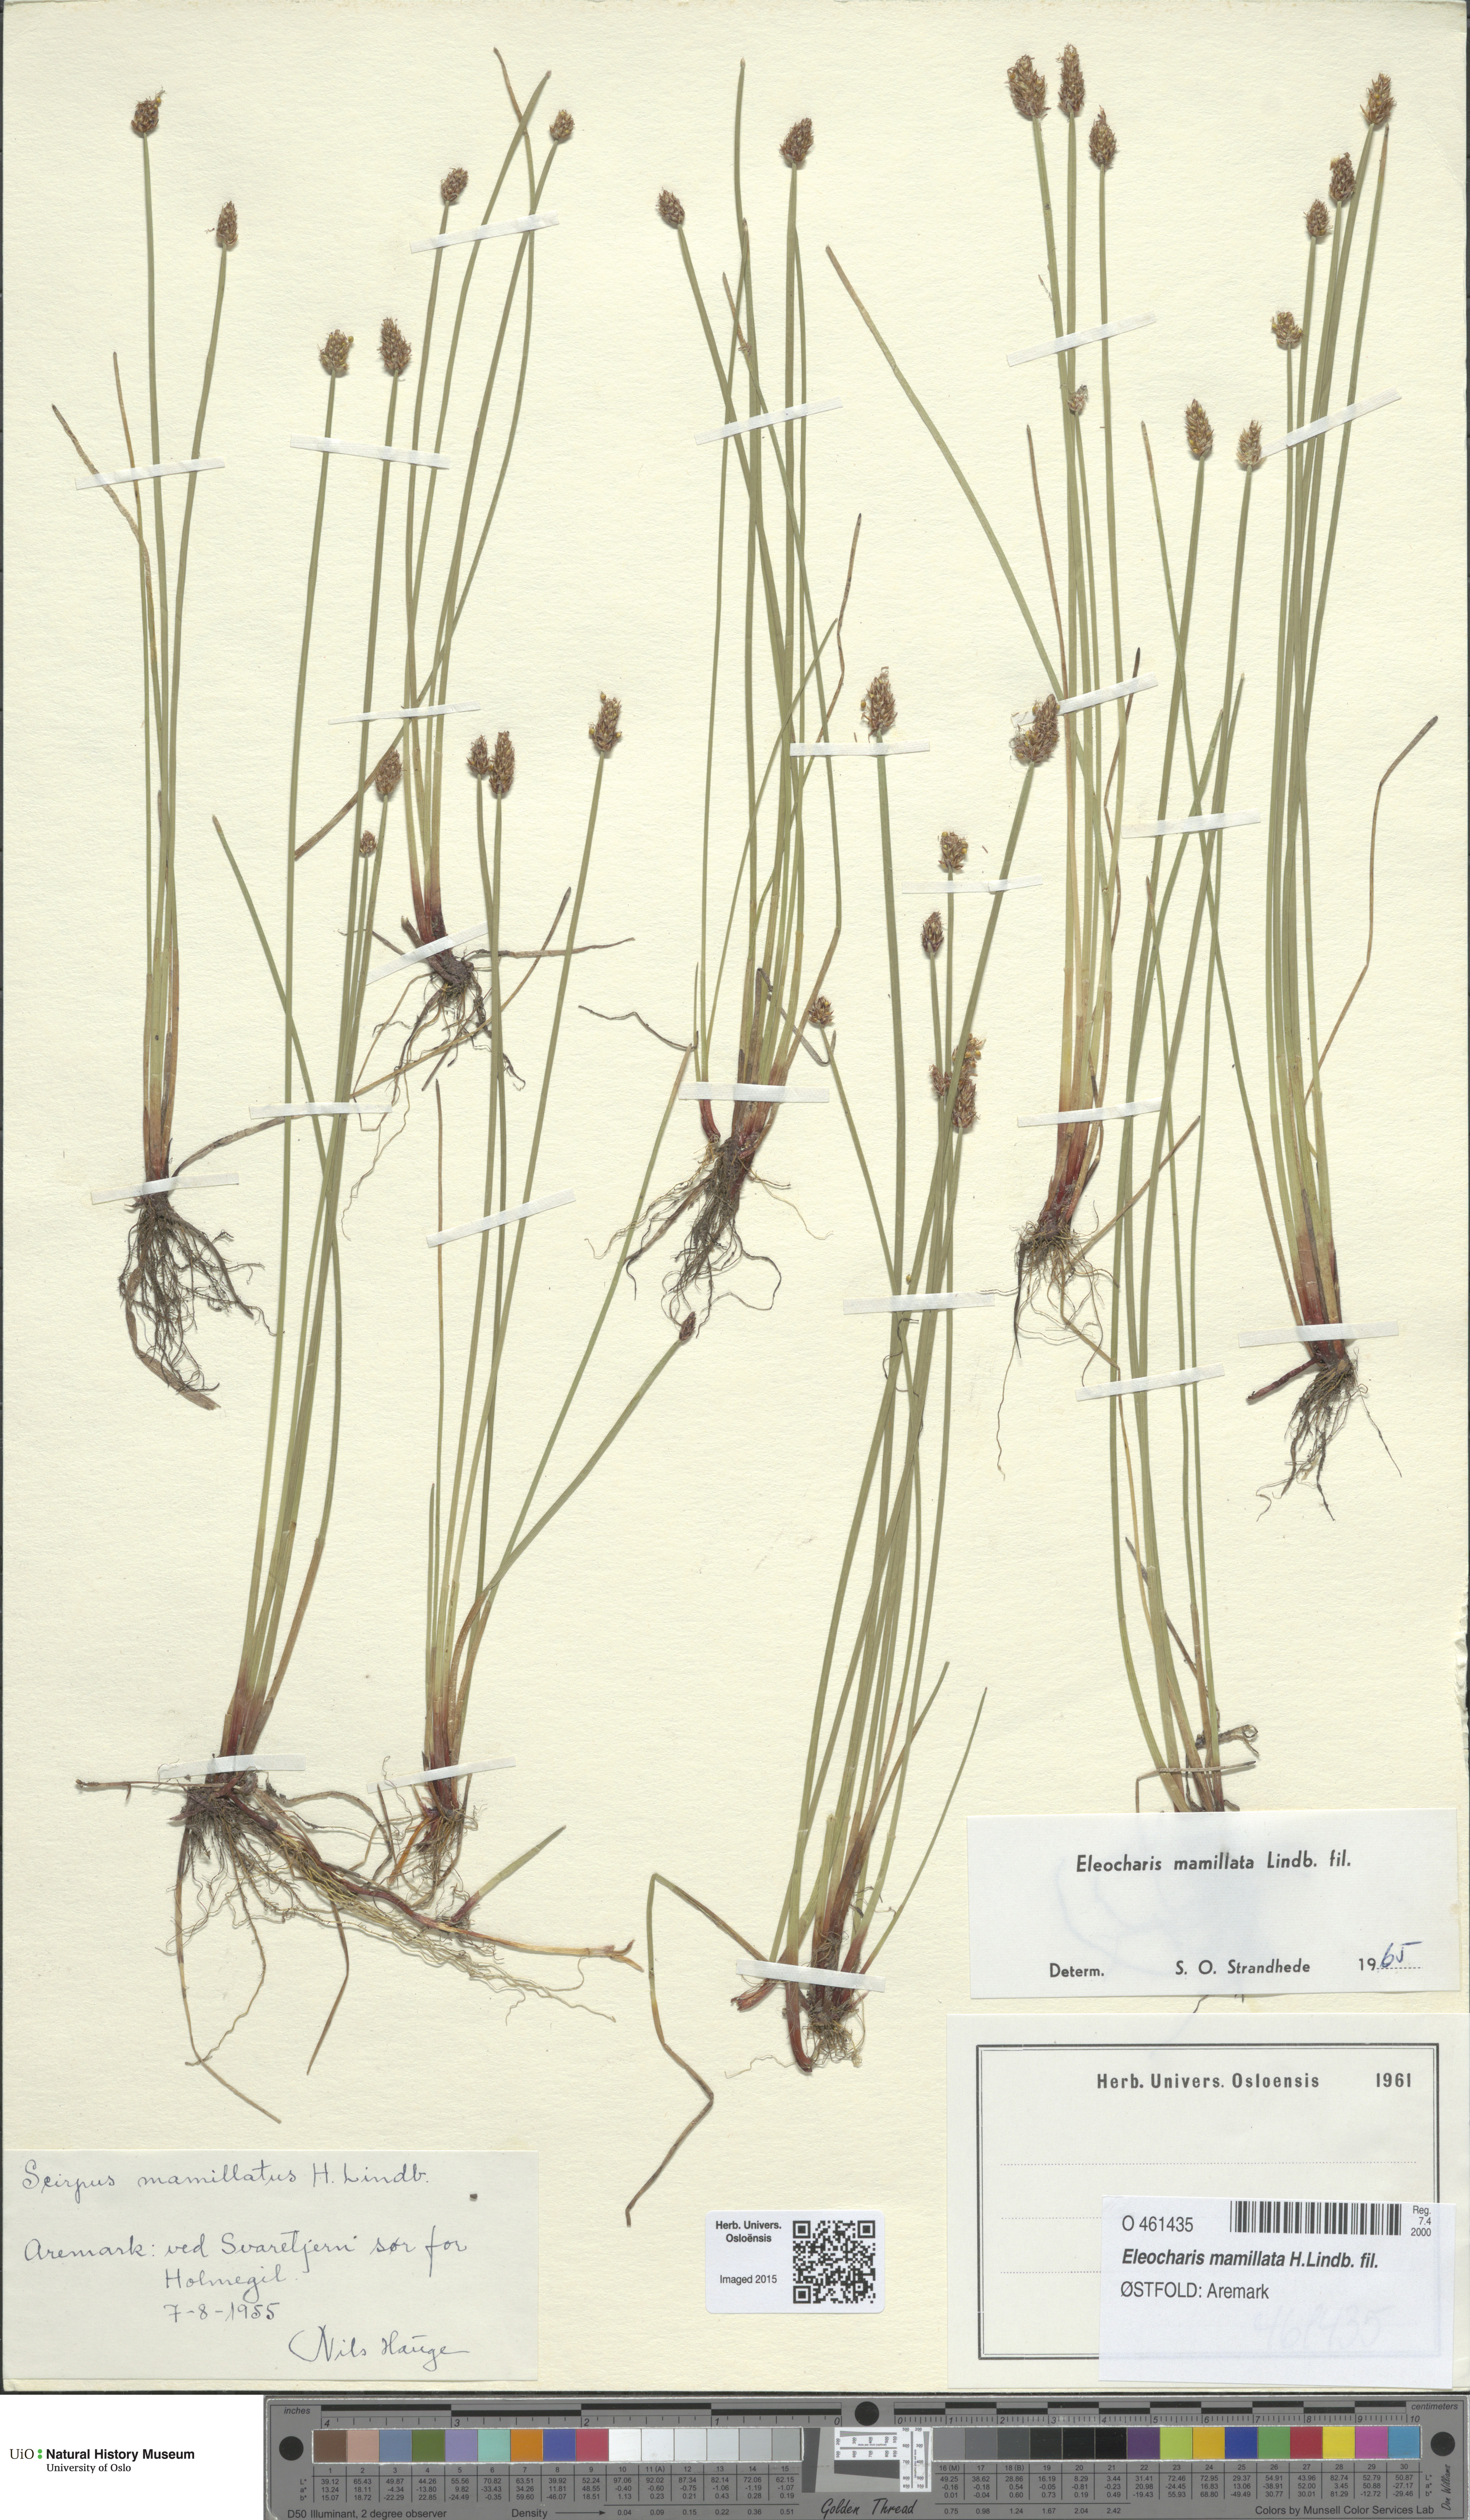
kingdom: Plantae
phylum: Tracheophyta
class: Liliopsida
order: Poales
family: Cyperaceae
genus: Eleocharis
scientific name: Eleocharis mamillata
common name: Northern spike-rush
